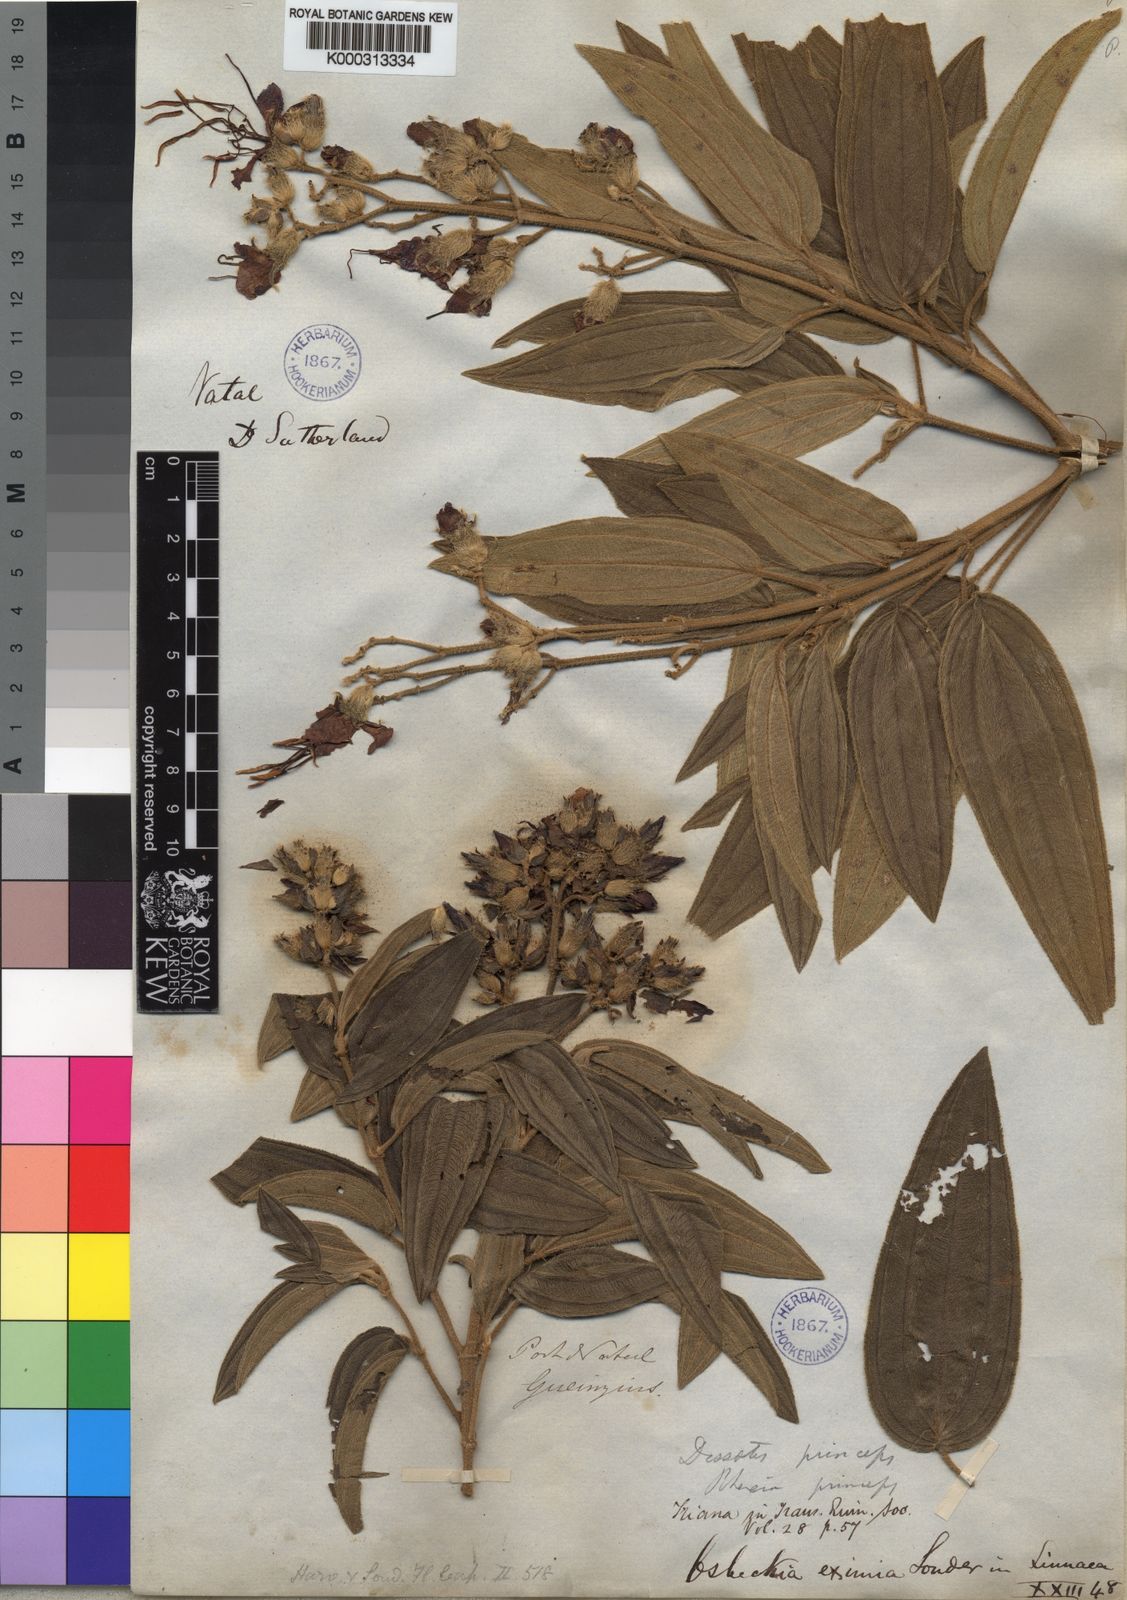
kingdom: Plantae
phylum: Tracheophyta
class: Magnoliopsida
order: Myrtales
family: Melastomataceae
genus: Rosettea
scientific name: Rosettea princeps
